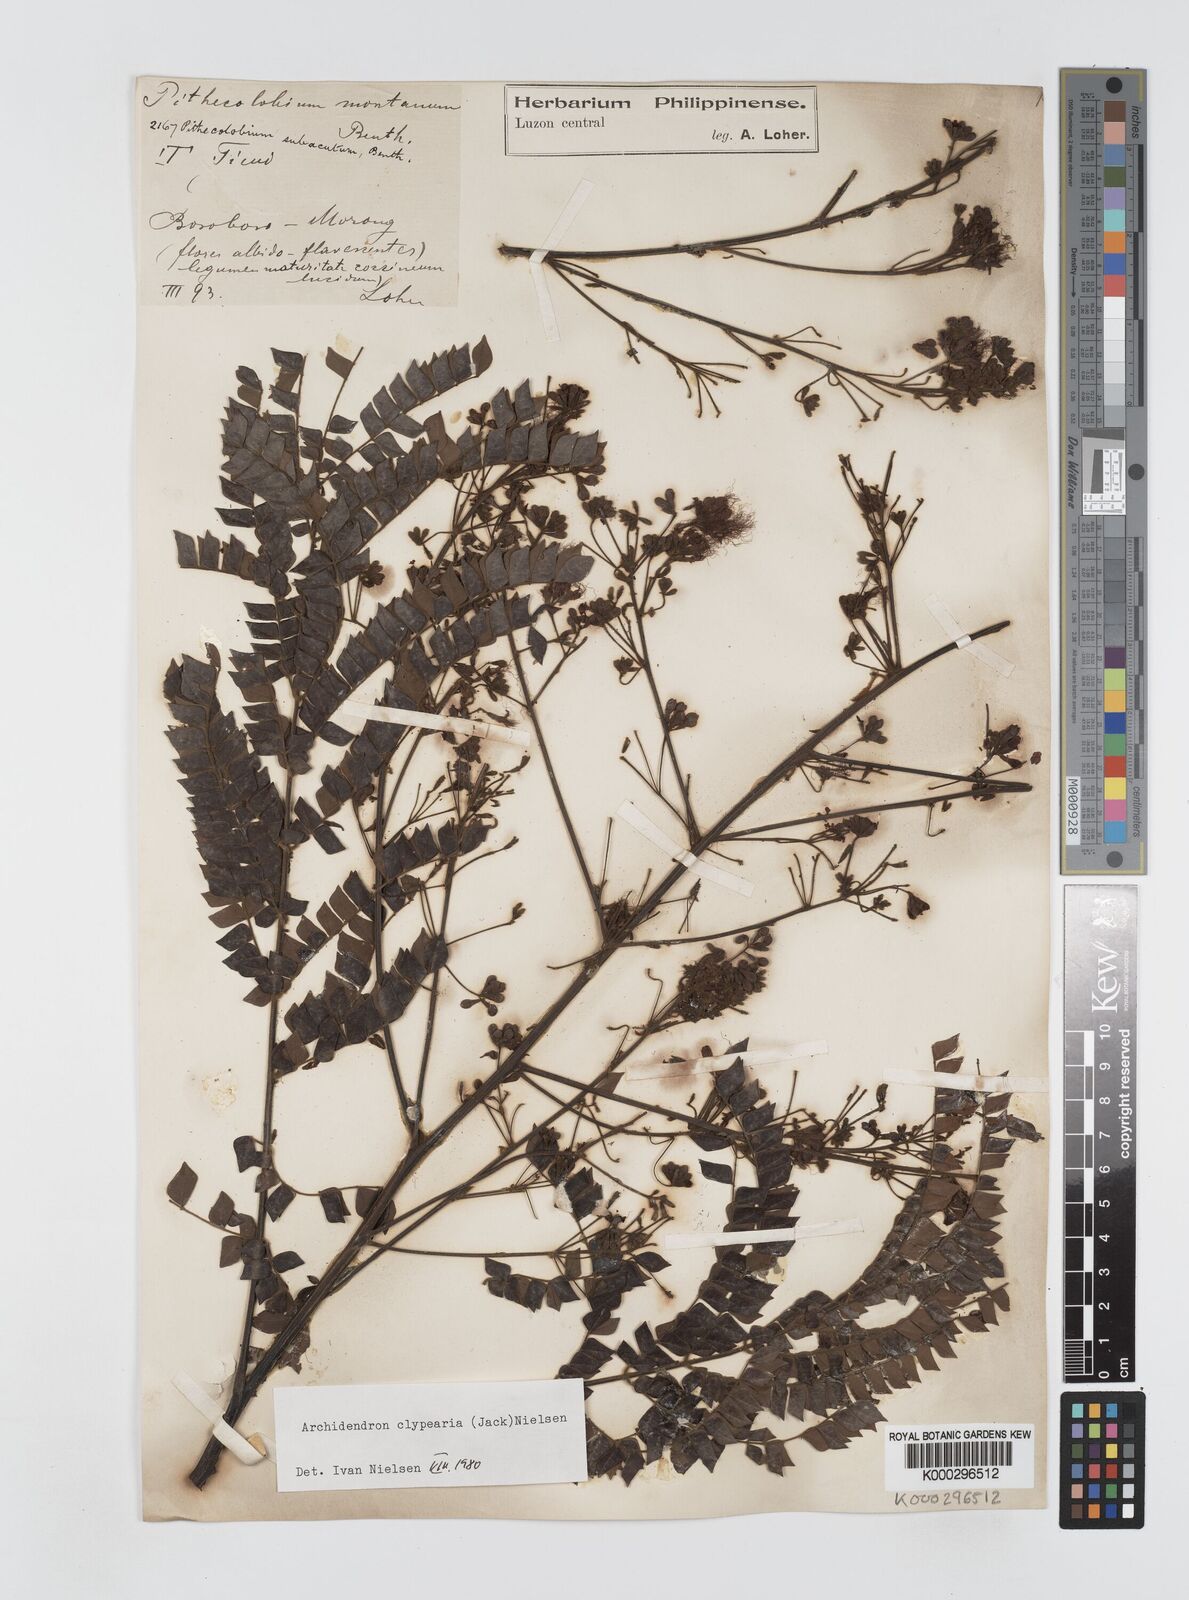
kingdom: Plantae
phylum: Tracheophyta
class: Magnoliopsida
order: Fabales
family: Fabaceae
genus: Archidendron
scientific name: Archidendron clypearia
